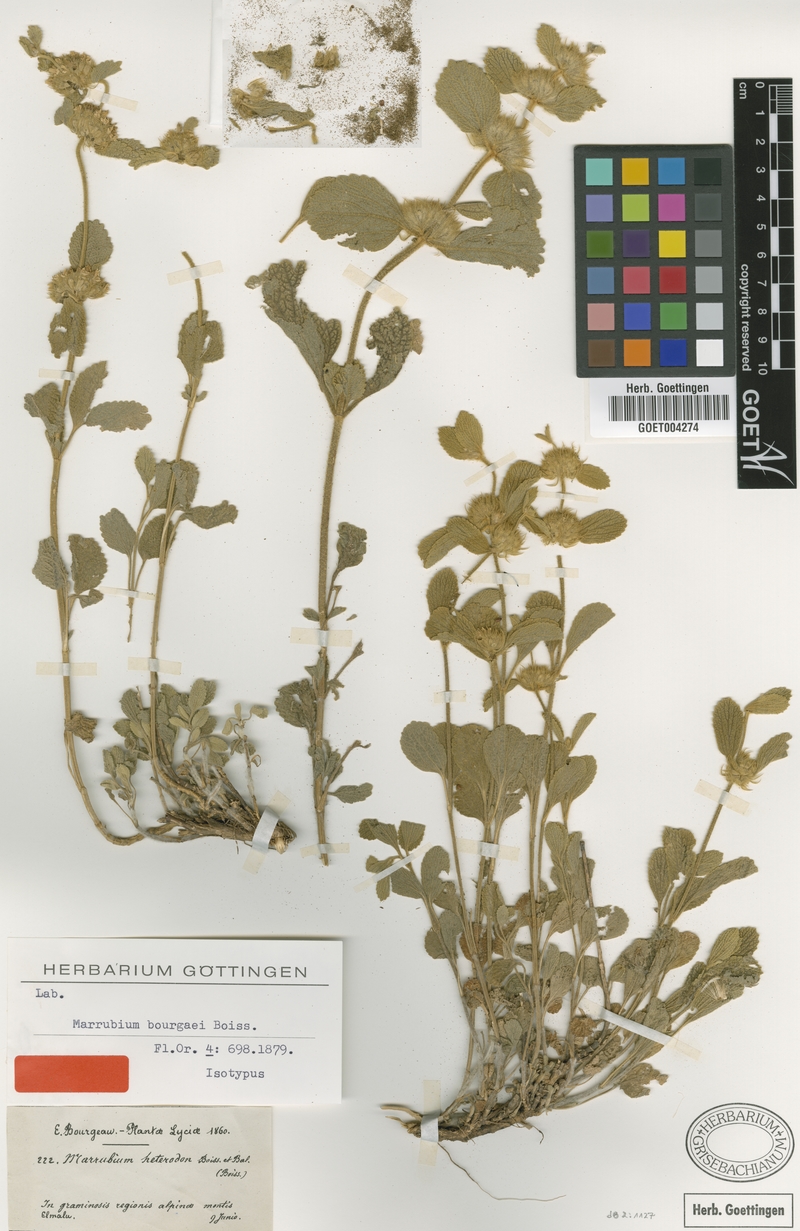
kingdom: Plantae
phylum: Tracheophyta
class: Magnoliopsida
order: Lamiales
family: Lamiaceae
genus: Marrubium
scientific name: Marrubium bourgaei
